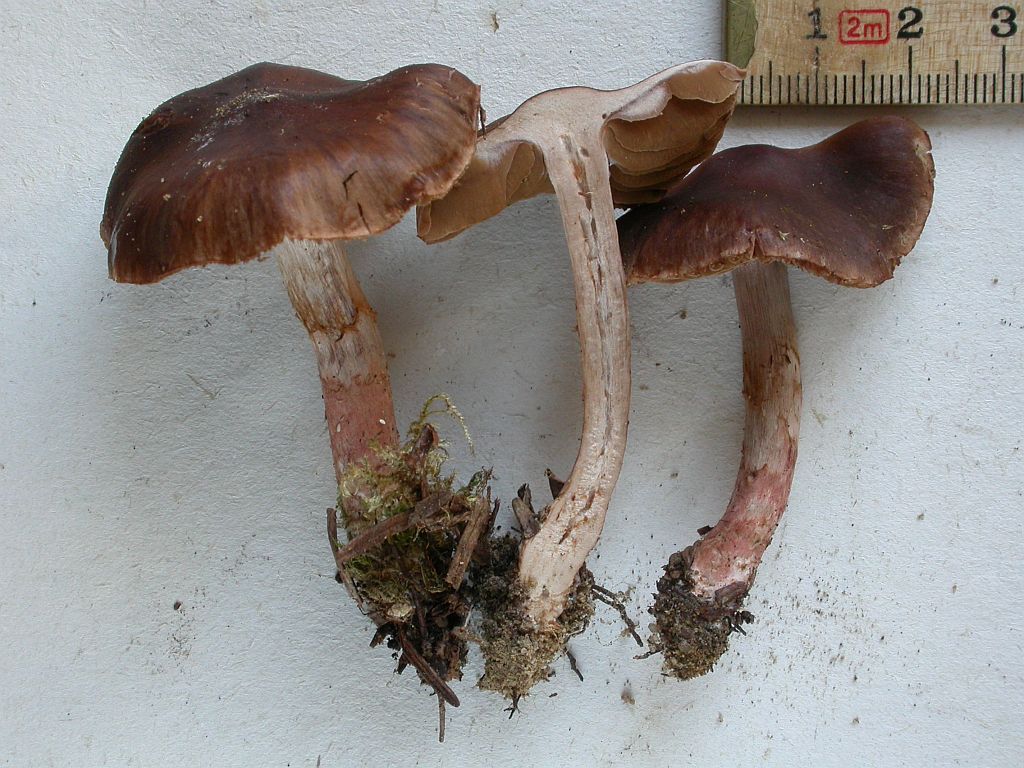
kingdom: Fungi
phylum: Basidiomycota
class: Agaricomycetes
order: Agaricales
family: Cortinariaceae
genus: Cortinarius
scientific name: Cortinarius inconspicuus
